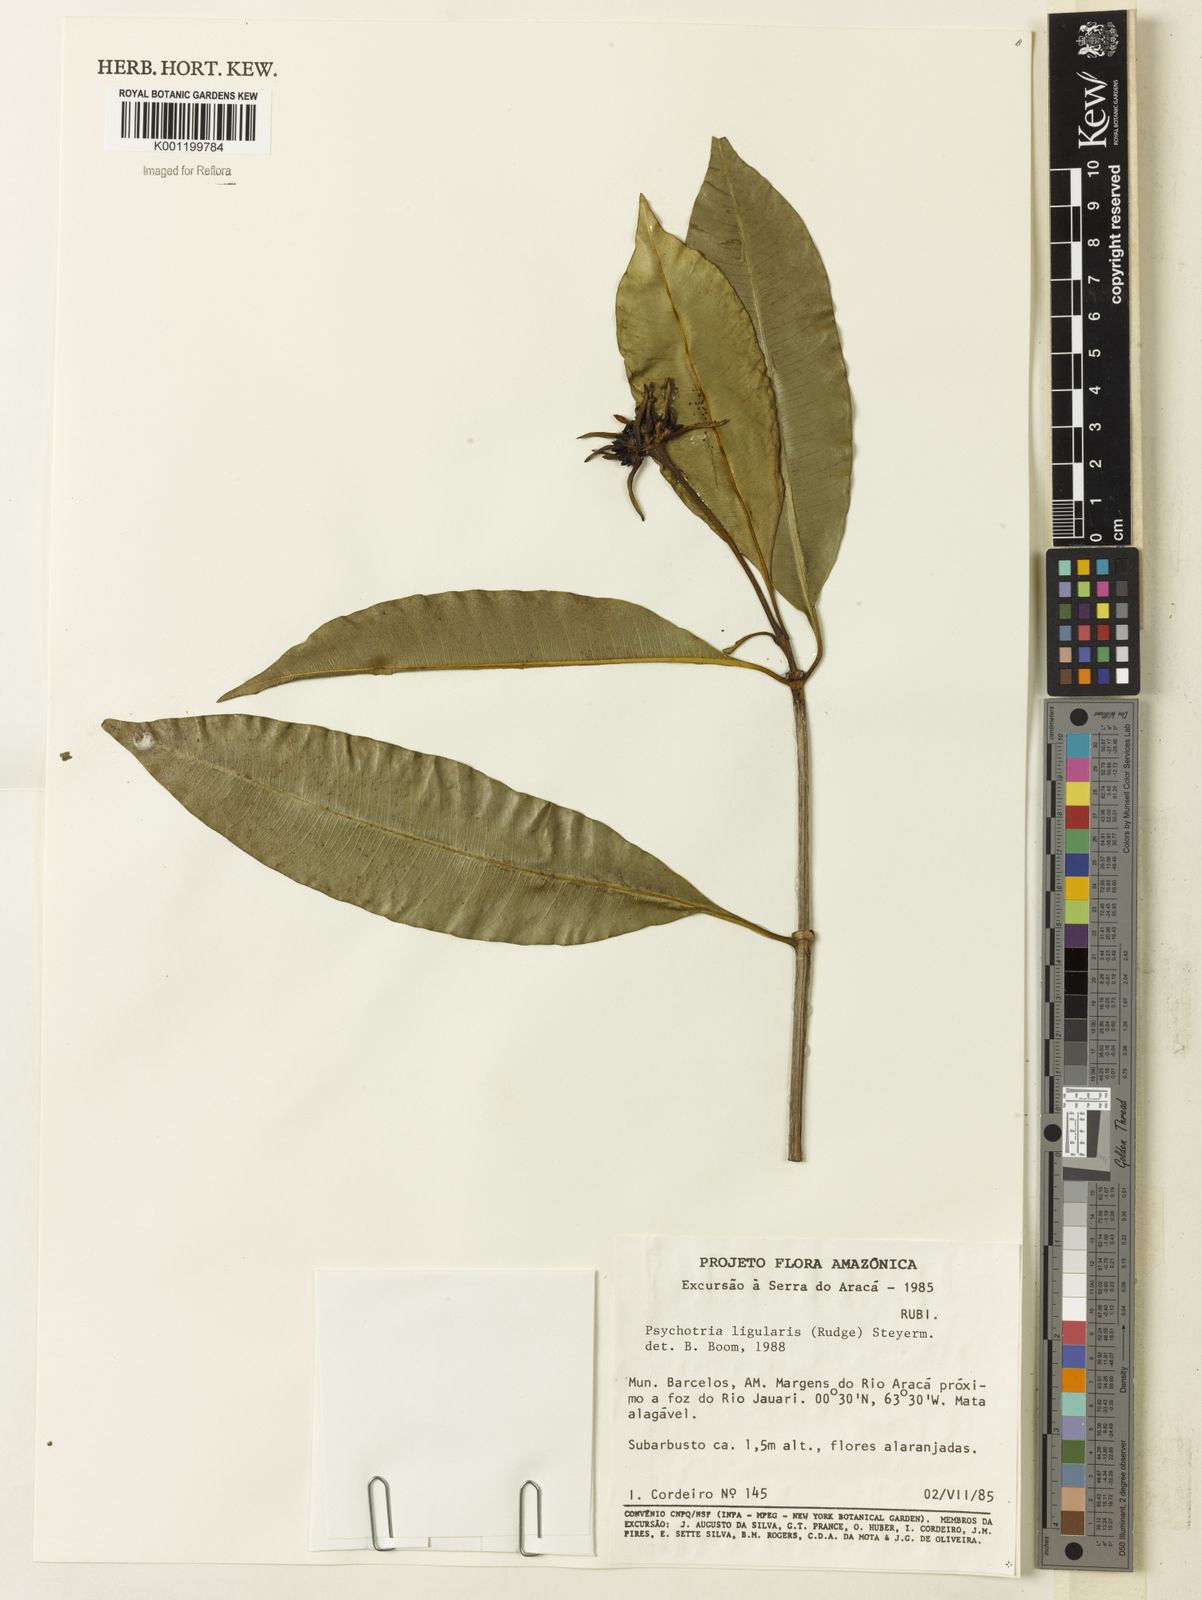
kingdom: Plantae
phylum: Tracheophyta
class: Magnoliopsida
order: Gentianales
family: Rubiaceae
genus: Carapichea
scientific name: Carapichea ligularis
